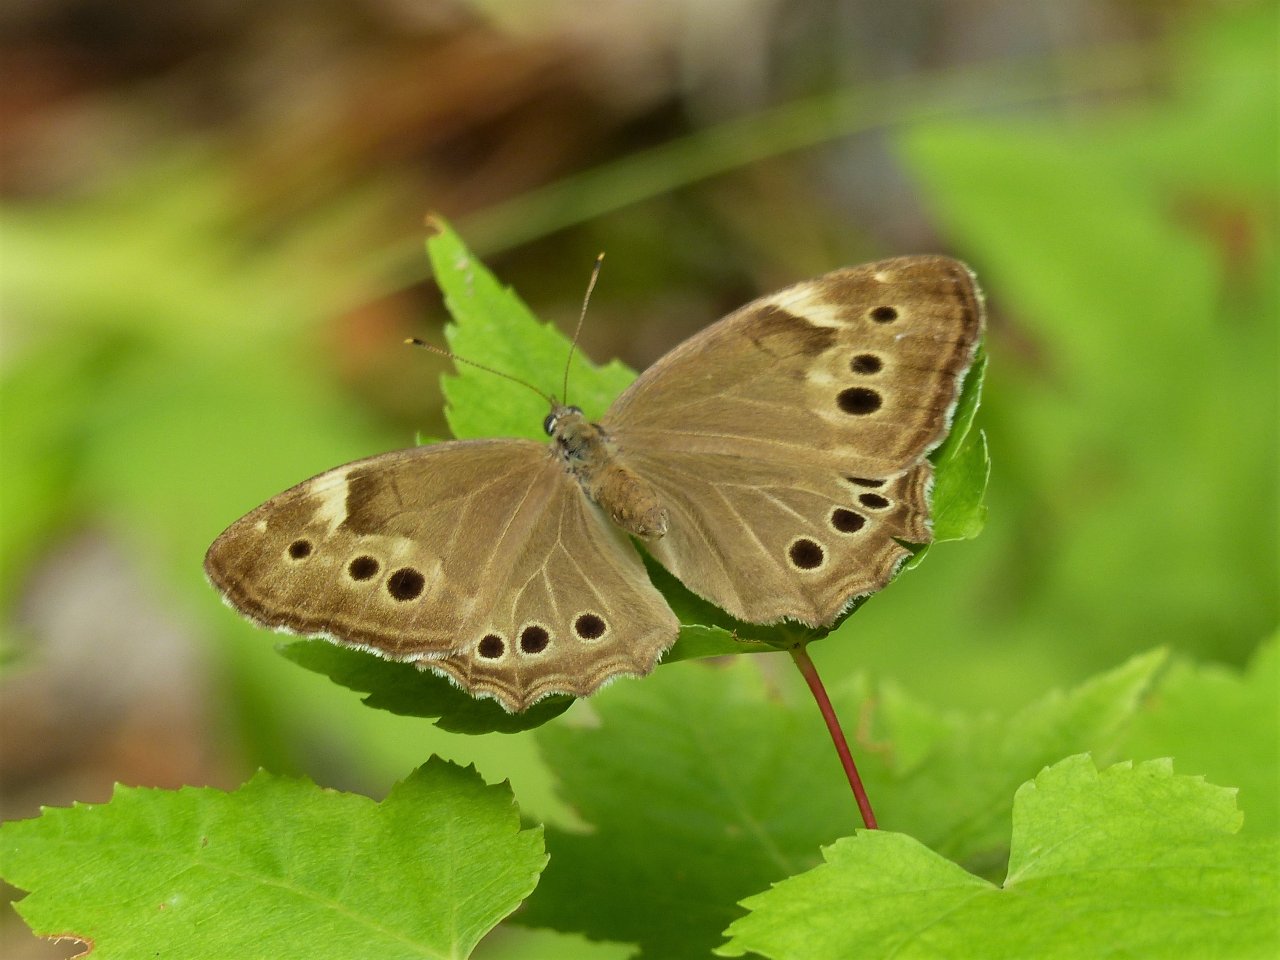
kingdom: Animalia
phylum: Arthropoda
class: Insecta
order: Lepidoptera
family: Nymphalidae
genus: Lethe
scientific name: Lethe anthedon
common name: Northern Pearly-Eye
